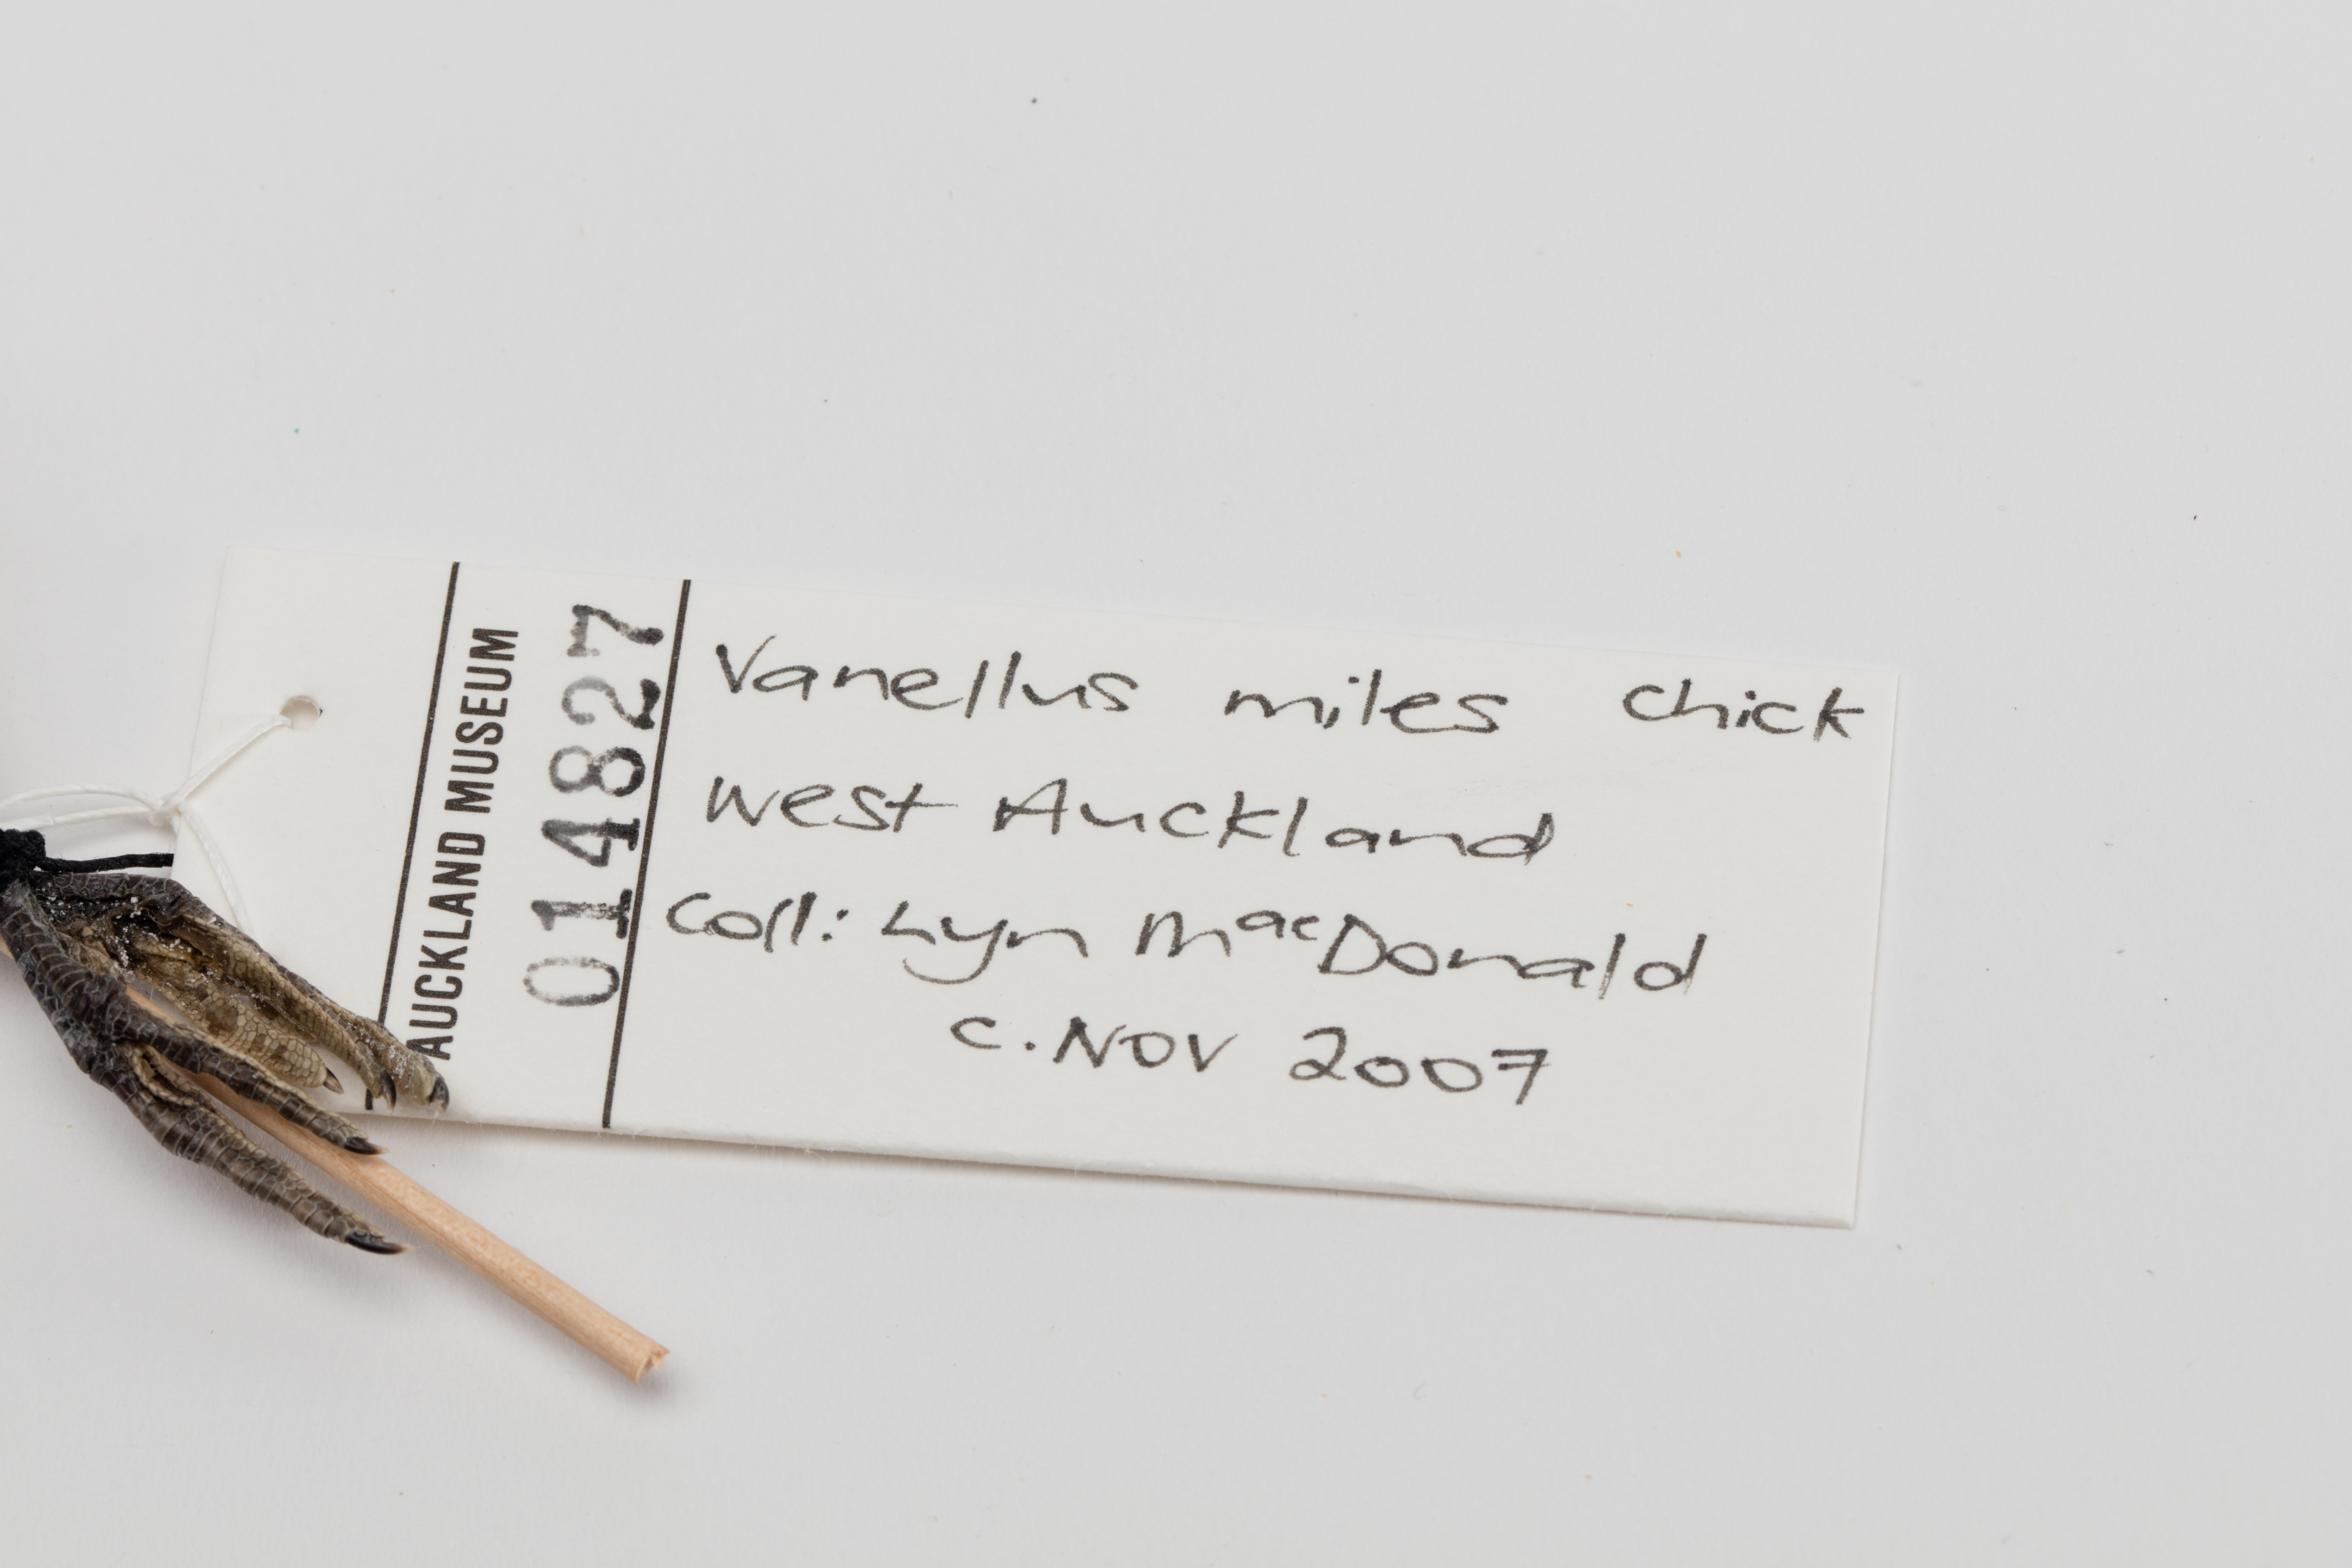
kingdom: Animalia
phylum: Chordata
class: Aves
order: Charadriiformes
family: Charadriidae
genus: Vanellus
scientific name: Vanellus miles
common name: Masked lapwing
